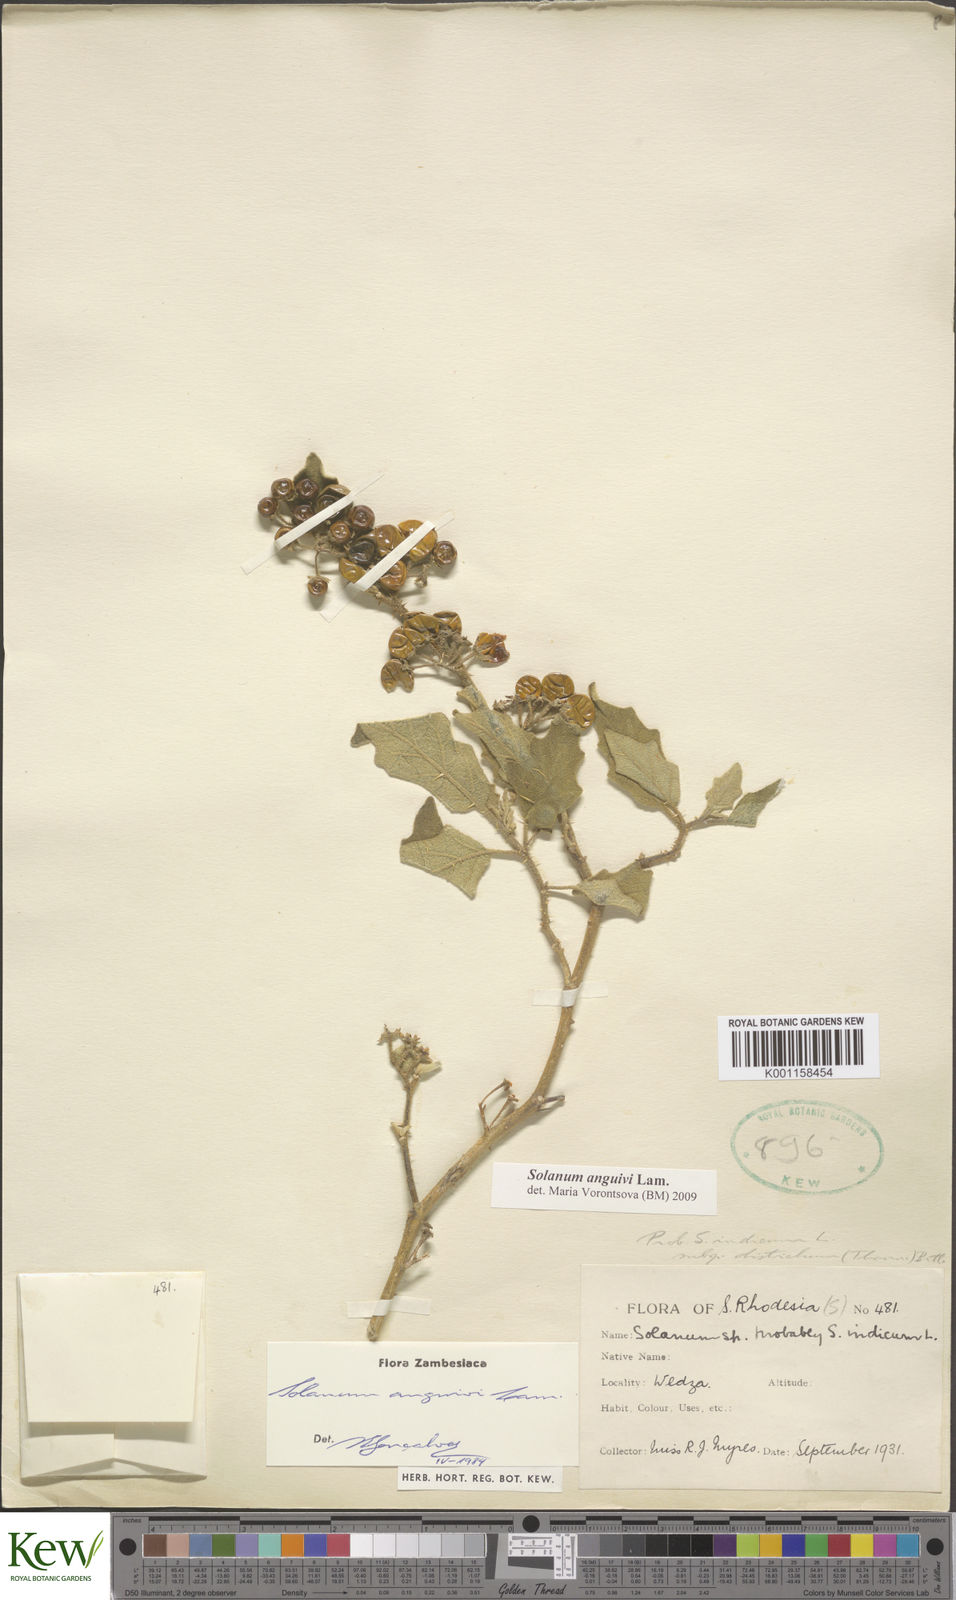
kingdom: Plantae
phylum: Tracheophyta
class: Magnoliopsida
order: Solanales
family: Solanaceae
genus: Solanum
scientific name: Solanum anguivi
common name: Forest bitterberry
